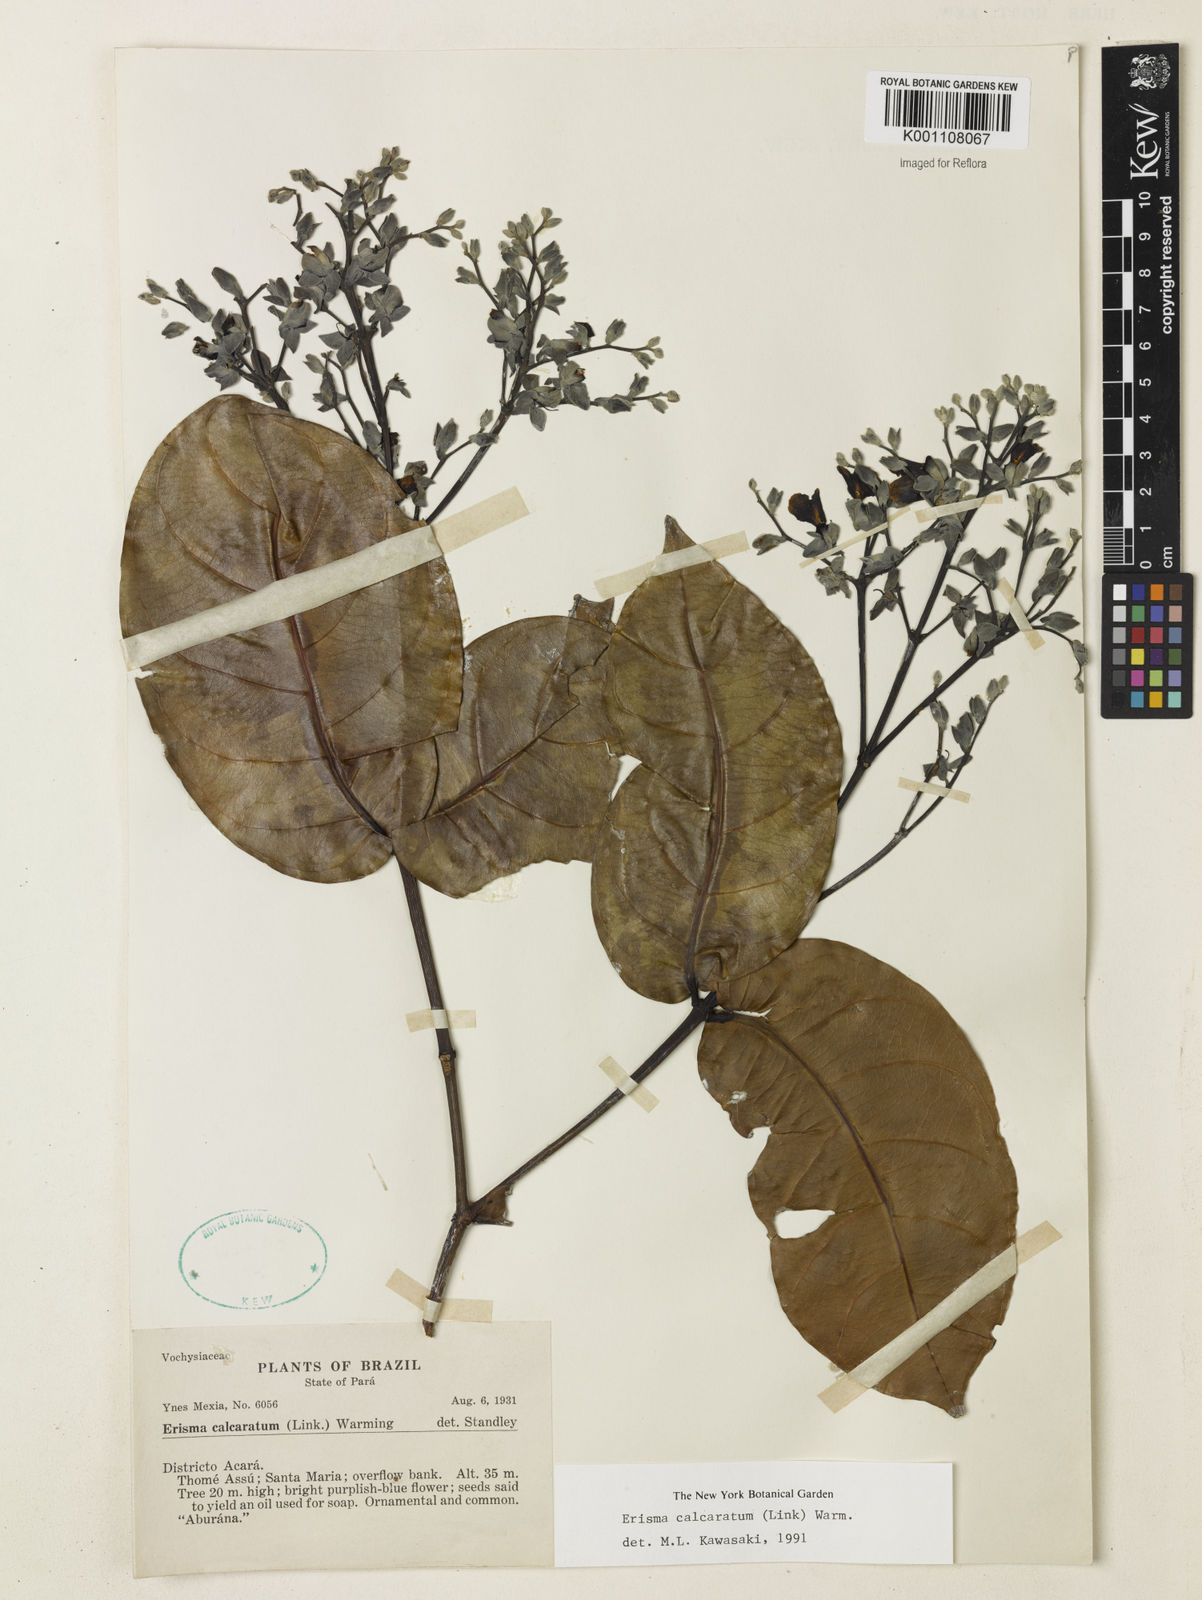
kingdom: Plantae
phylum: Tracheophyta
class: Magnoliopsida
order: Myrtales
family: Vochysiaceae
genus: Erisma
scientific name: Erisma calcaratum
